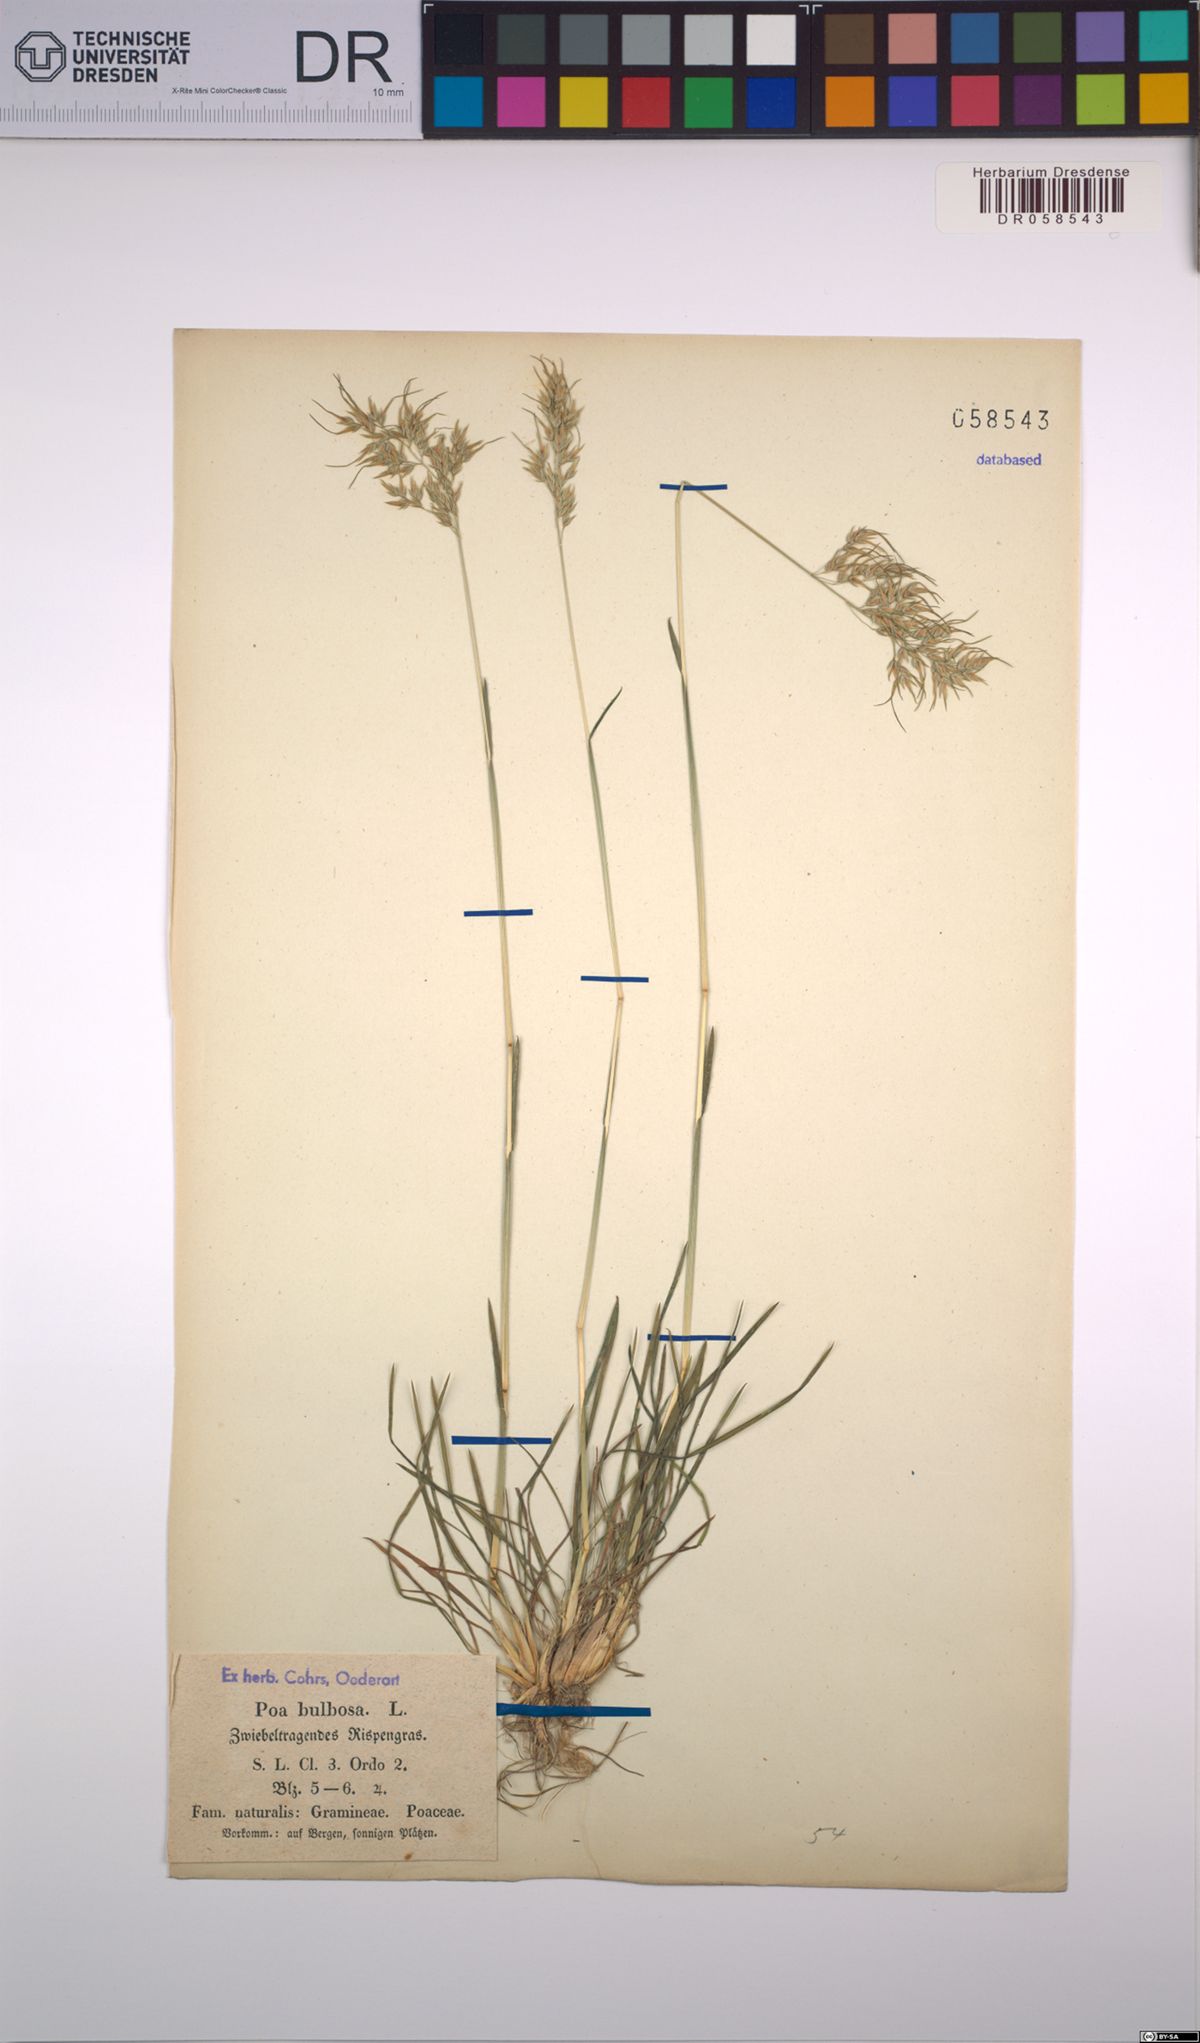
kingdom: Plantae
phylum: Tracheophyta
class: Liliopsida
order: Poales
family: Poaceae
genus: Poa
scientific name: Poa bulbosa
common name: Bulbous bluegrass
